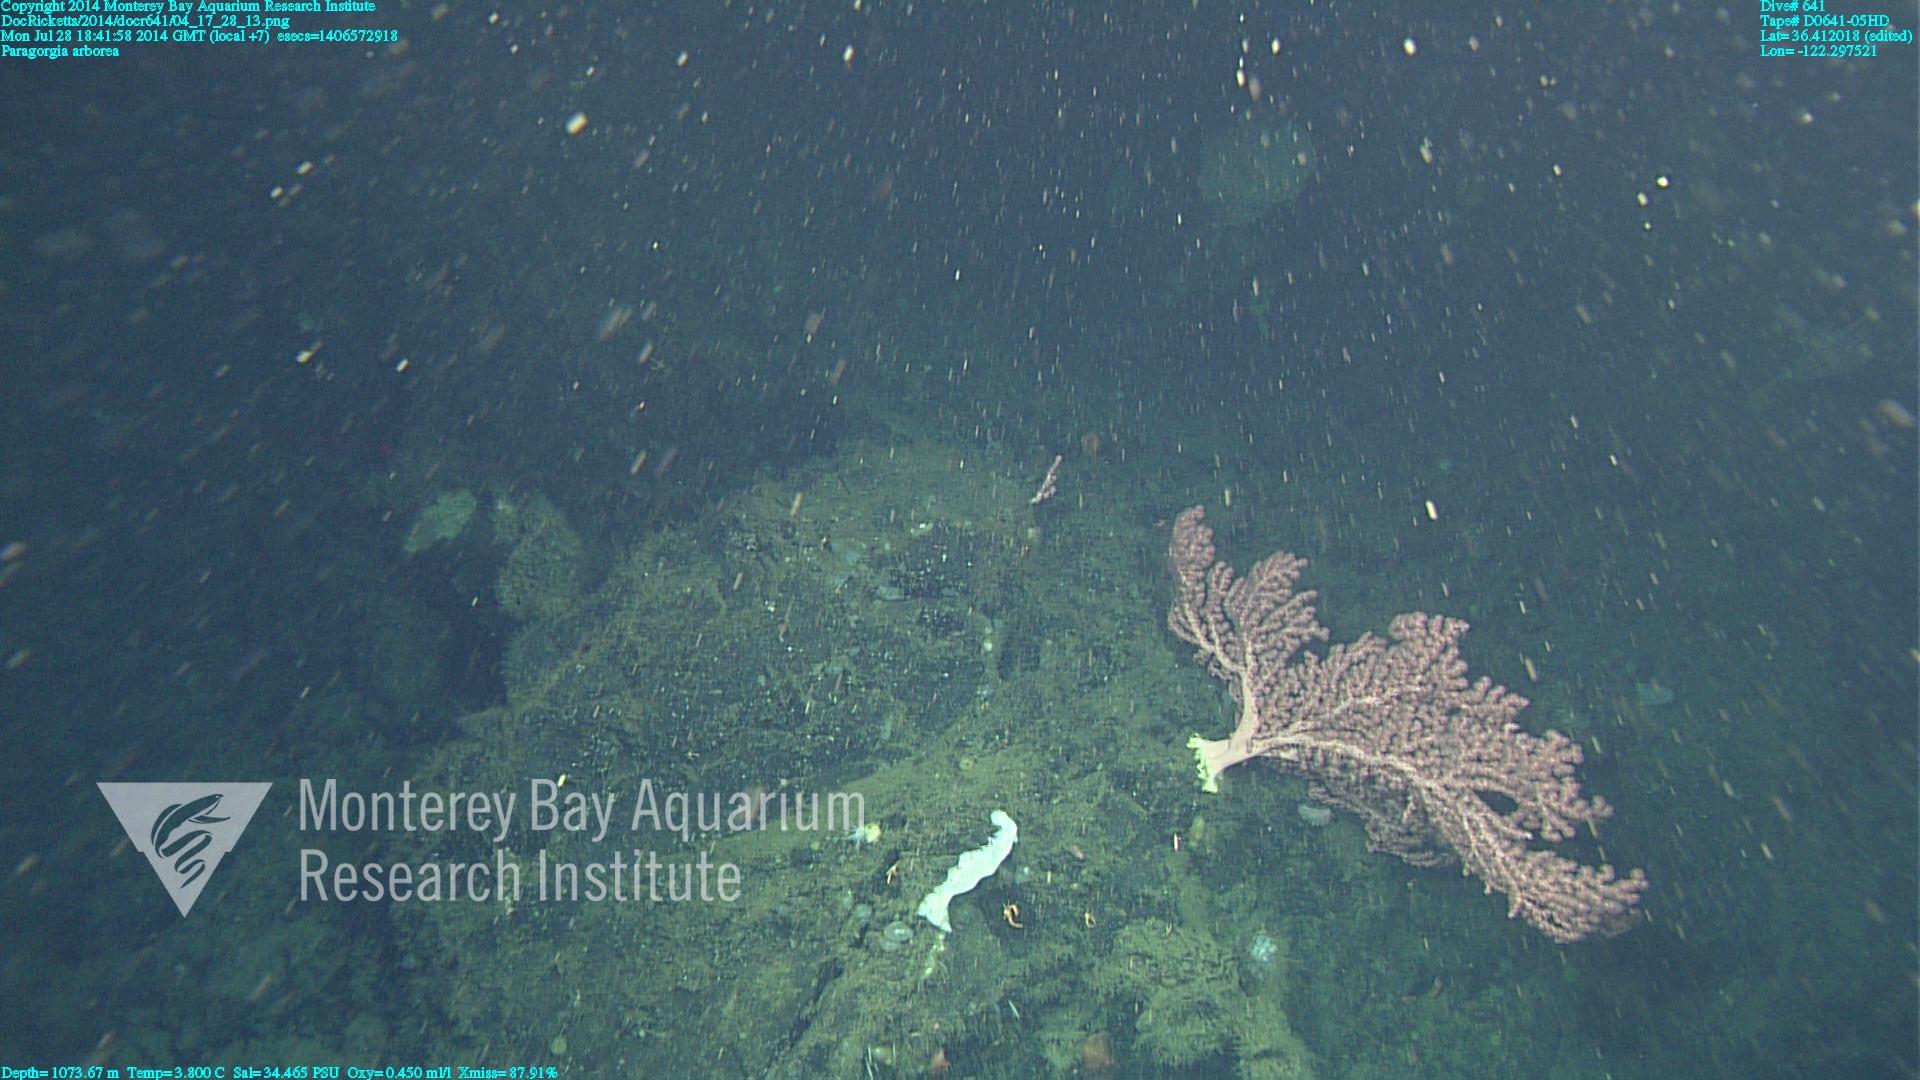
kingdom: Animalia
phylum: Cnidaria
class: Anthozoa
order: Scleralcyonacea
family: Coralliidae
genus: Paragorgia
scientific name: Paragorgia arborea
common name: Bubble gum coral
